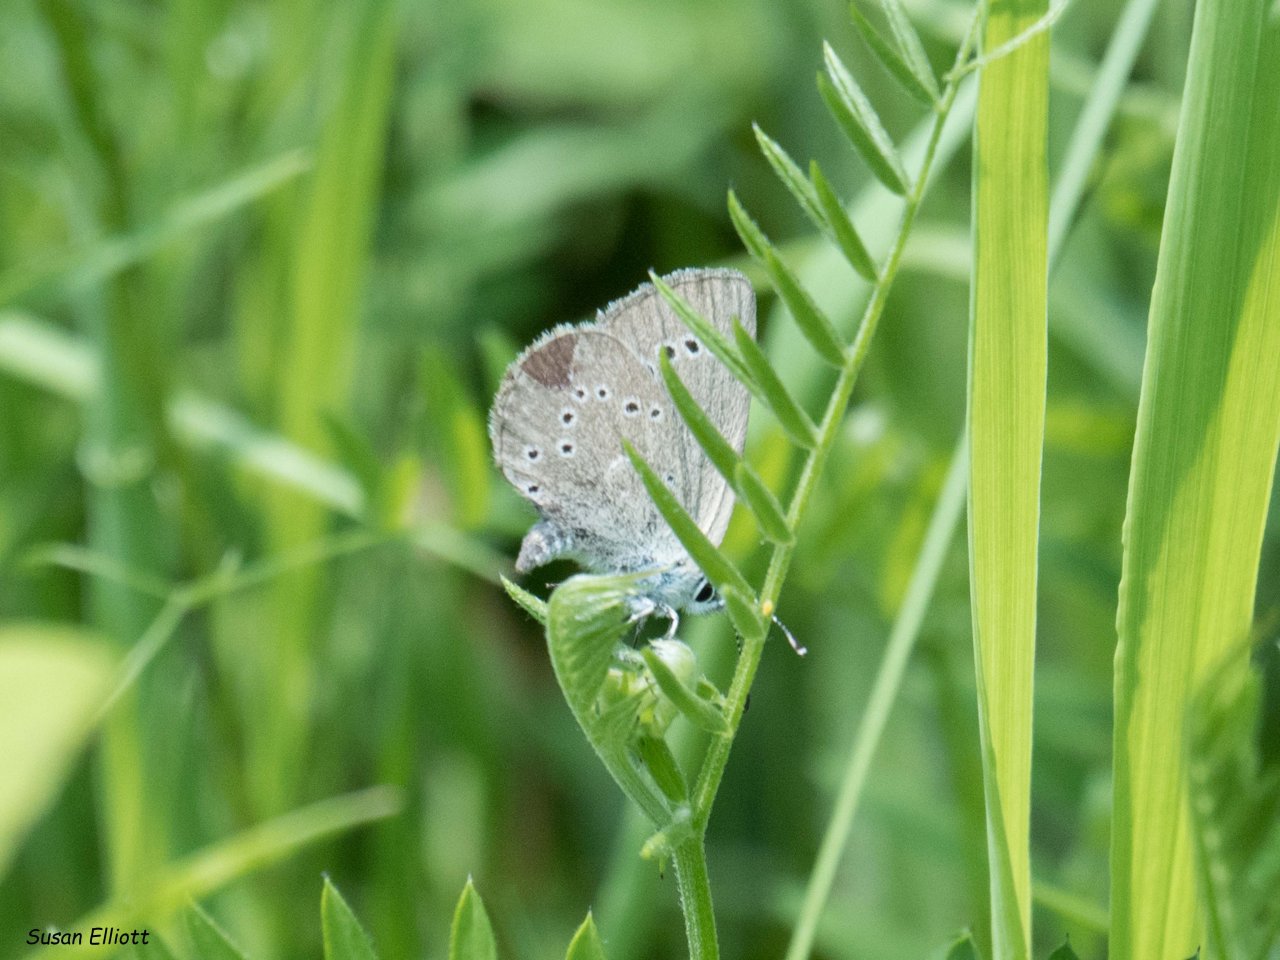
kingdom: Animalia
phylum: Arthropoda
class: Insecta
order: Lepidoptera
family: Lycaenidae
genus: Glaucopsyche
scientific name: Glaucopsyche lygdamus
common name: Silvery Blue
